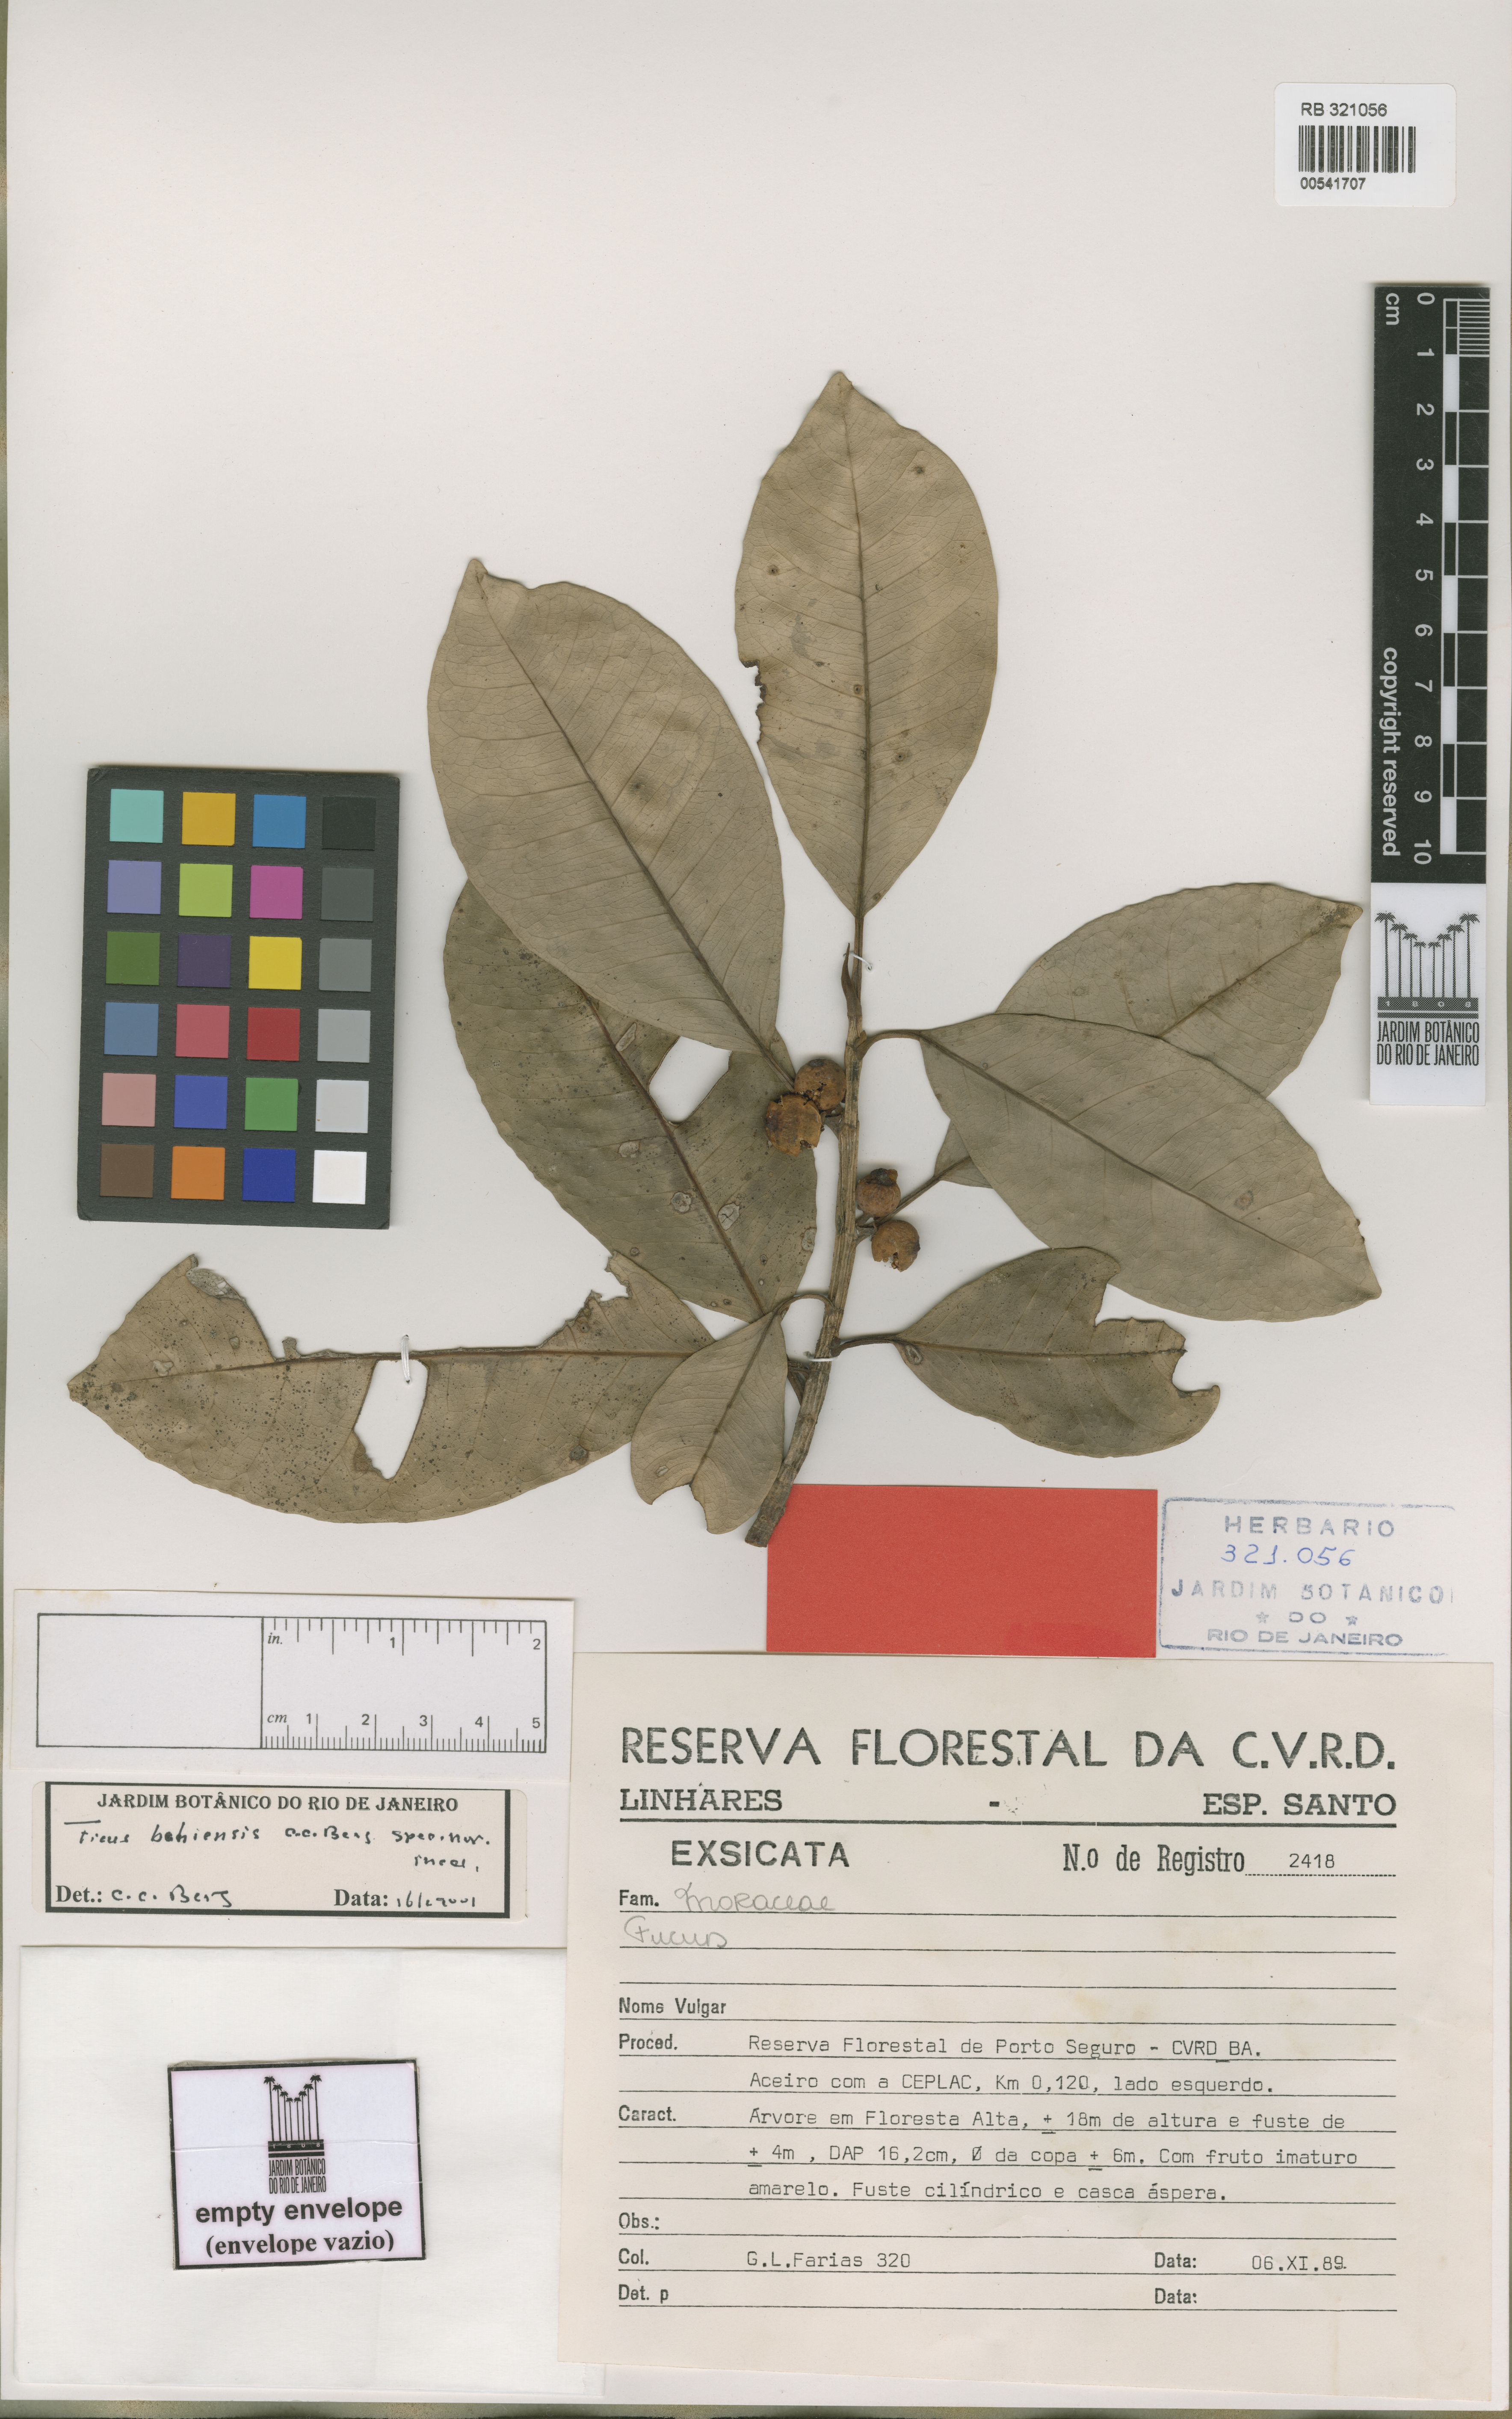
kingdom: Plantae
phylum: Tracheophyta
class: Magnoliopsida
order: Rosales
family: Moraceae
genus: Ficus
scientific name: Ficus bahiensis
